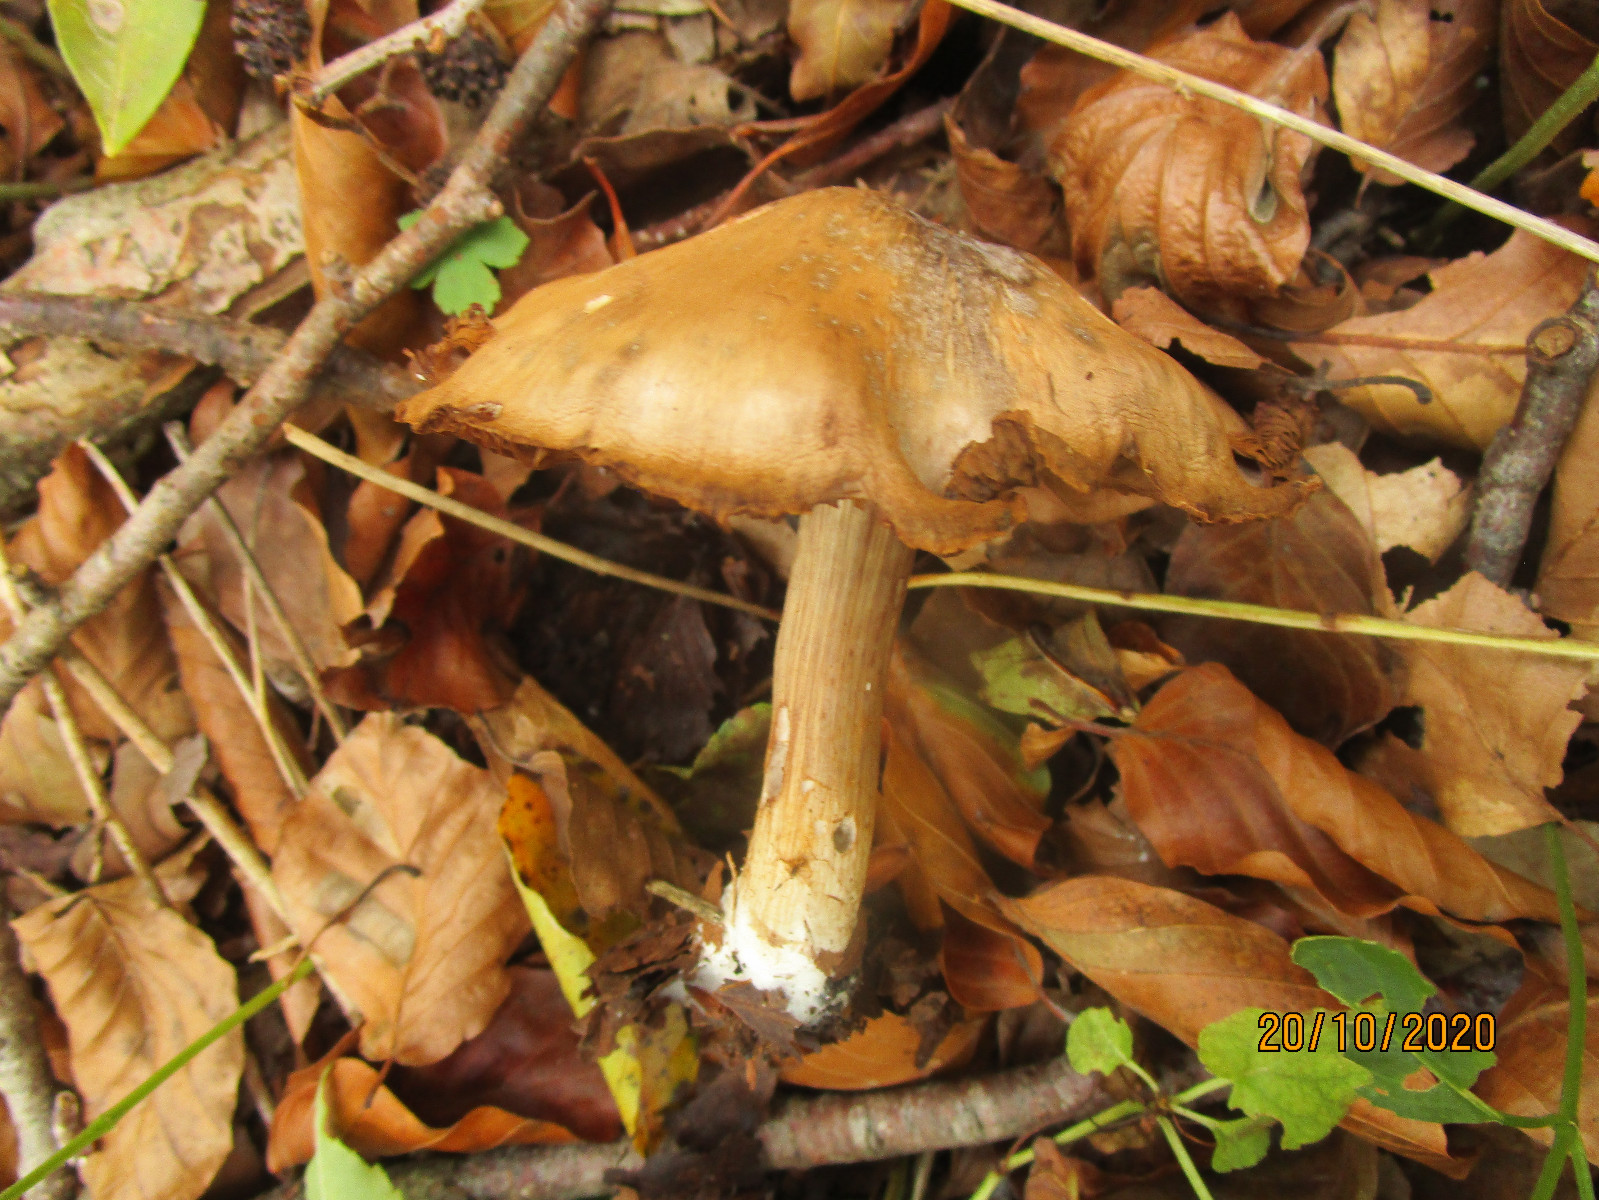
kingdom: Fungi
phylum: Basidiomycota
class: Agaricomycetes
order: Agaricales
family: Cortinariaceae
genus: Cortinarius
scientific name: Cortinarius
